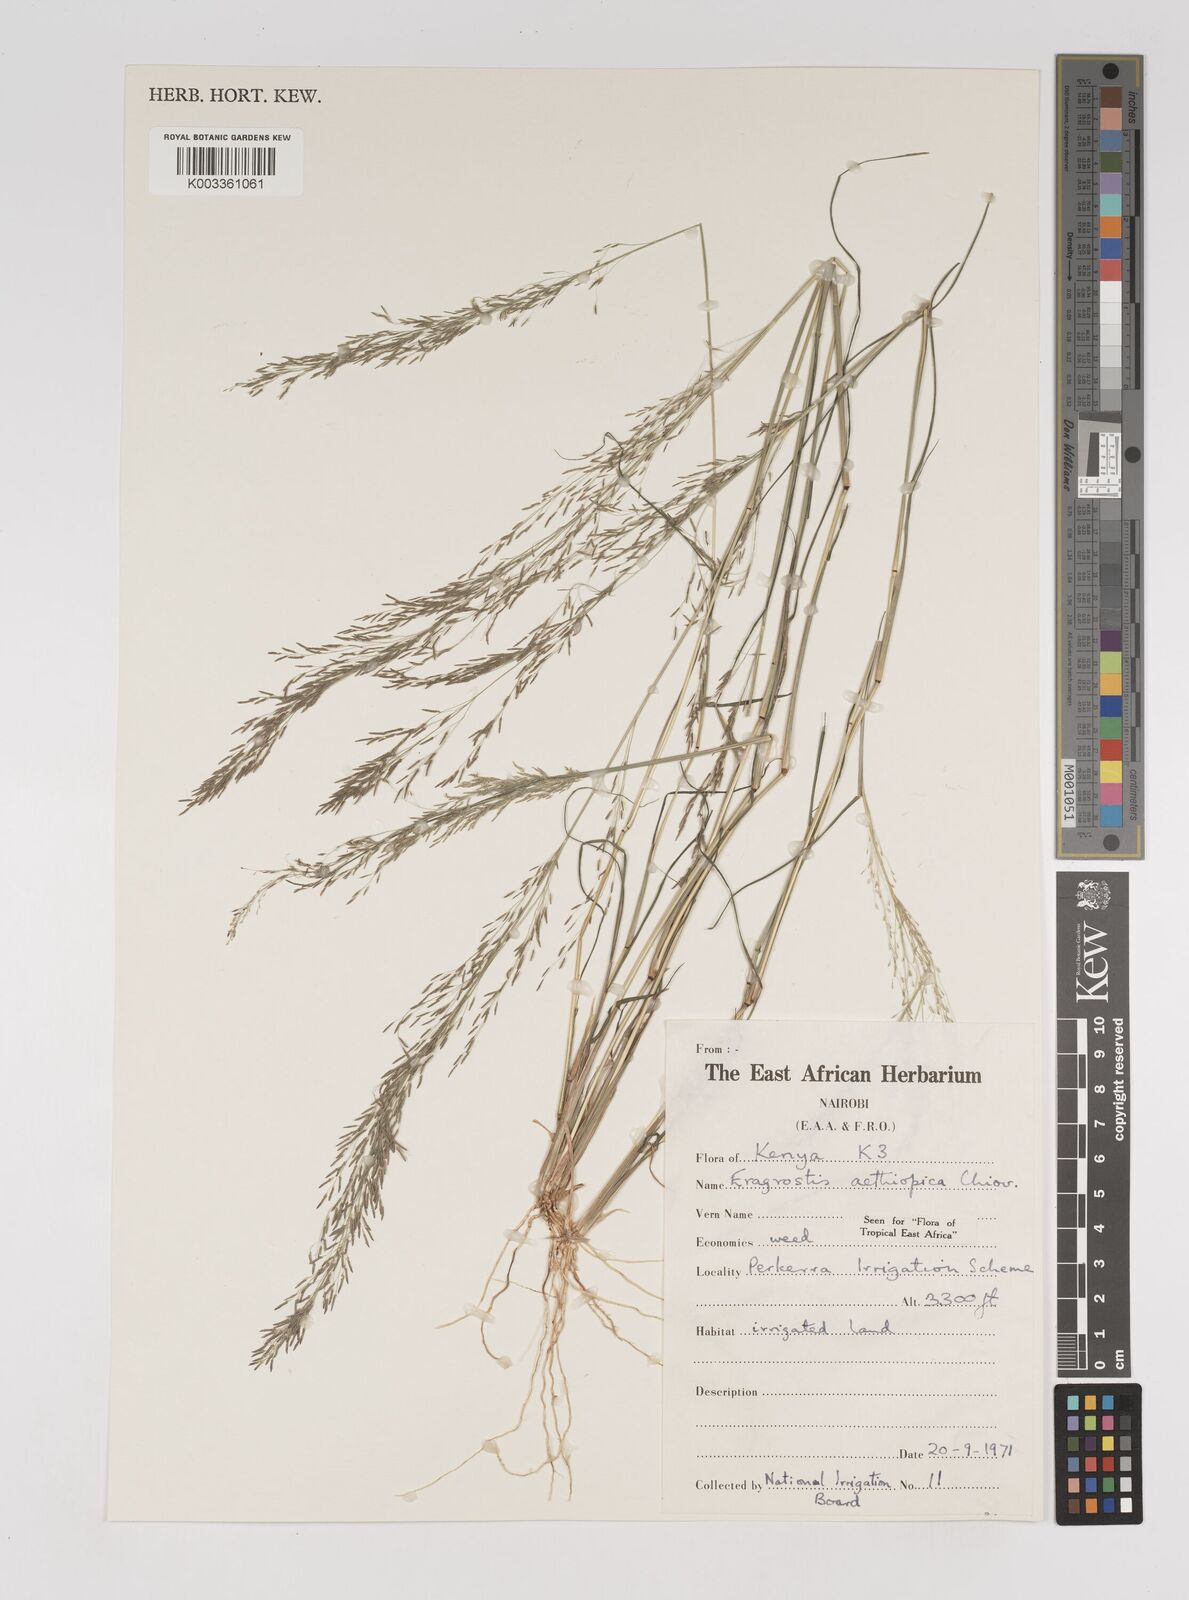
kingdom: Plantae
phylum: Tracheophyta
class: Liliopsida
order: Poales
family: Poaceae
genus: Eragrostis
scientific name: Eragrostis aethiopica
